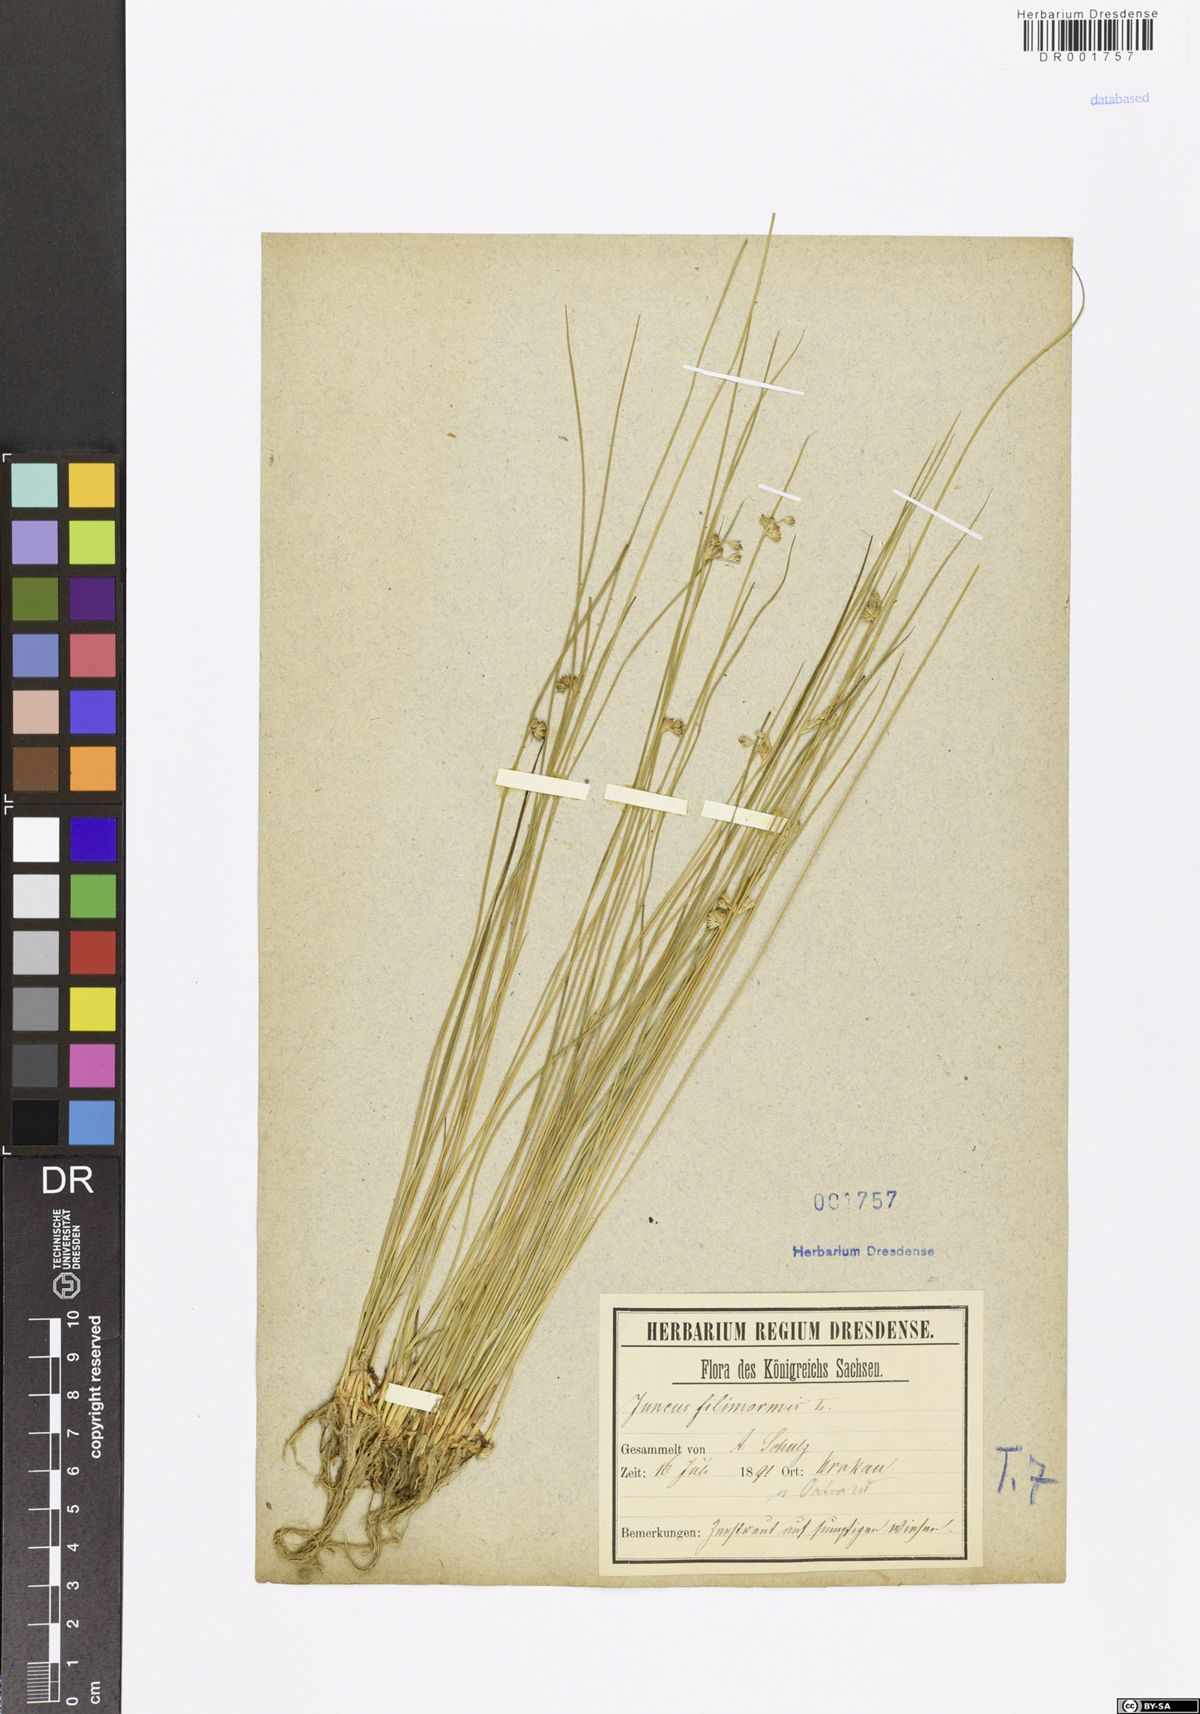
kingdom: Plantae
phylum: Tracheophyta
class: Liliopsida
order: Poales
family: Juncaceae
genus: Juncus
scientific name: Juncus inflexus
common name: Hard rush
